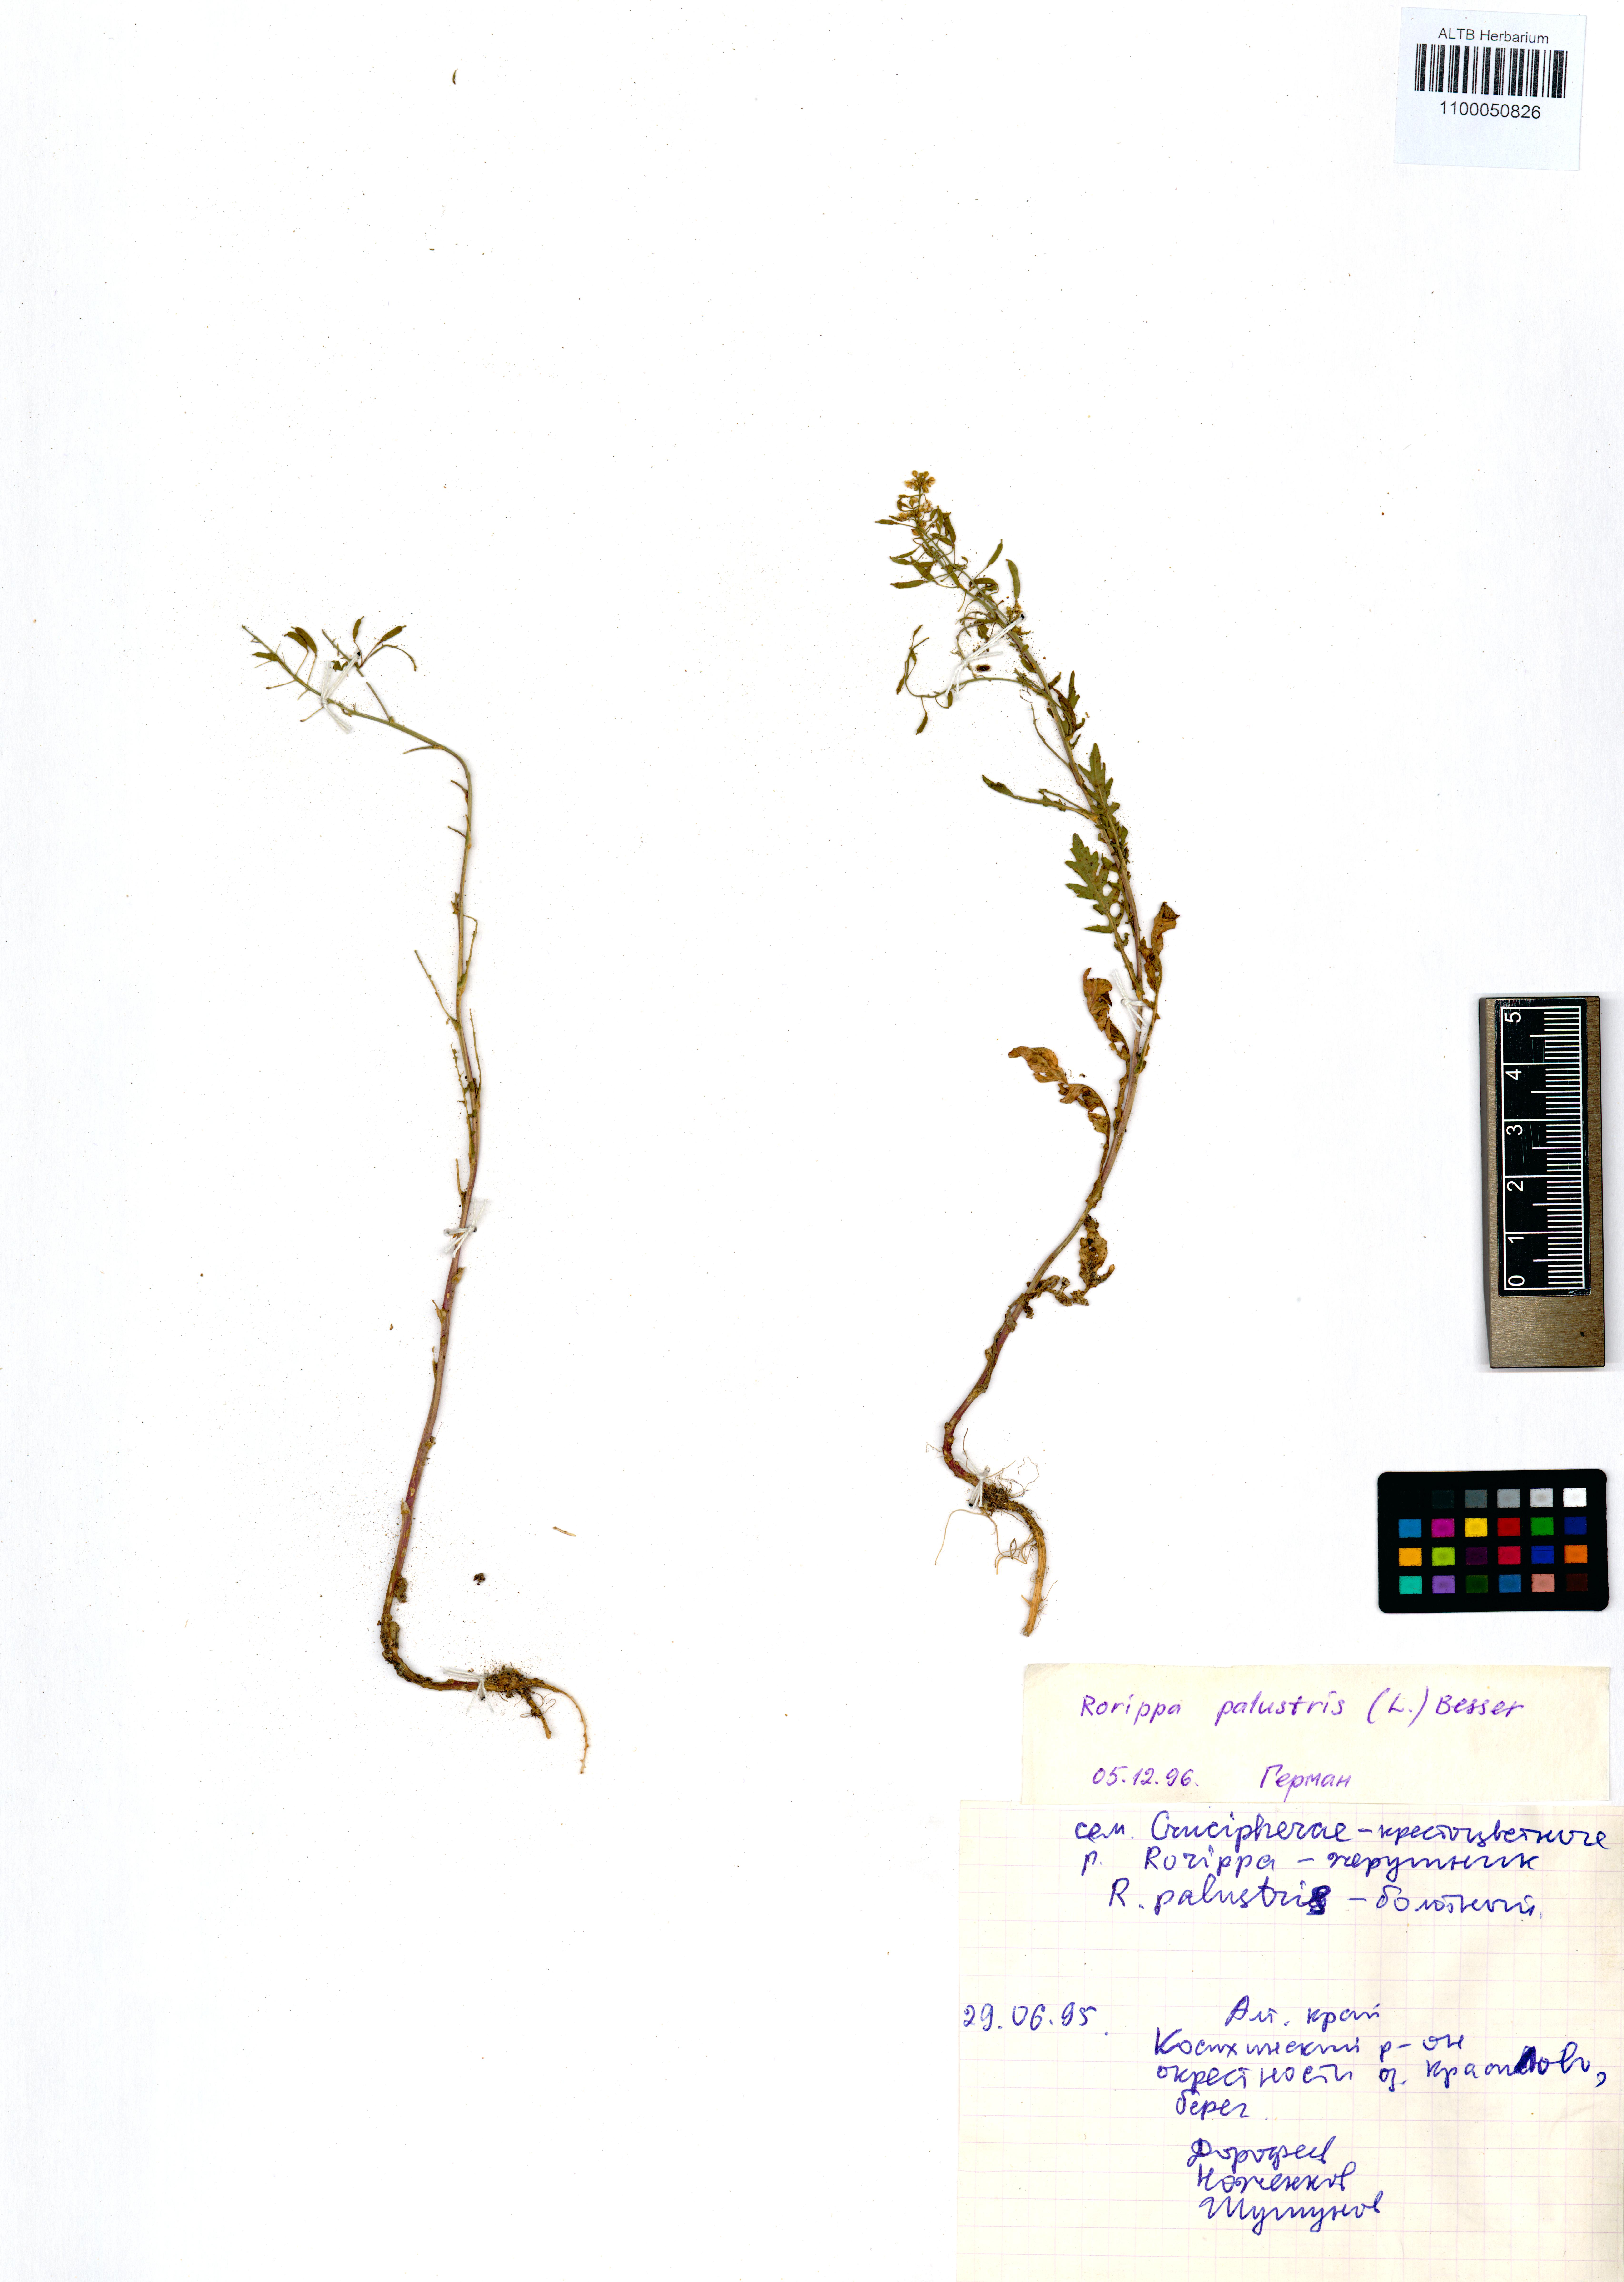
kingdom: Plantae
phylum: Tracheophyta
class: Magnoliopsida
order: Brassicales
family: Brassicaceae
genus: Rorippa
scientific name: Rorippa palustris
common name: Marsh yellow-cress
